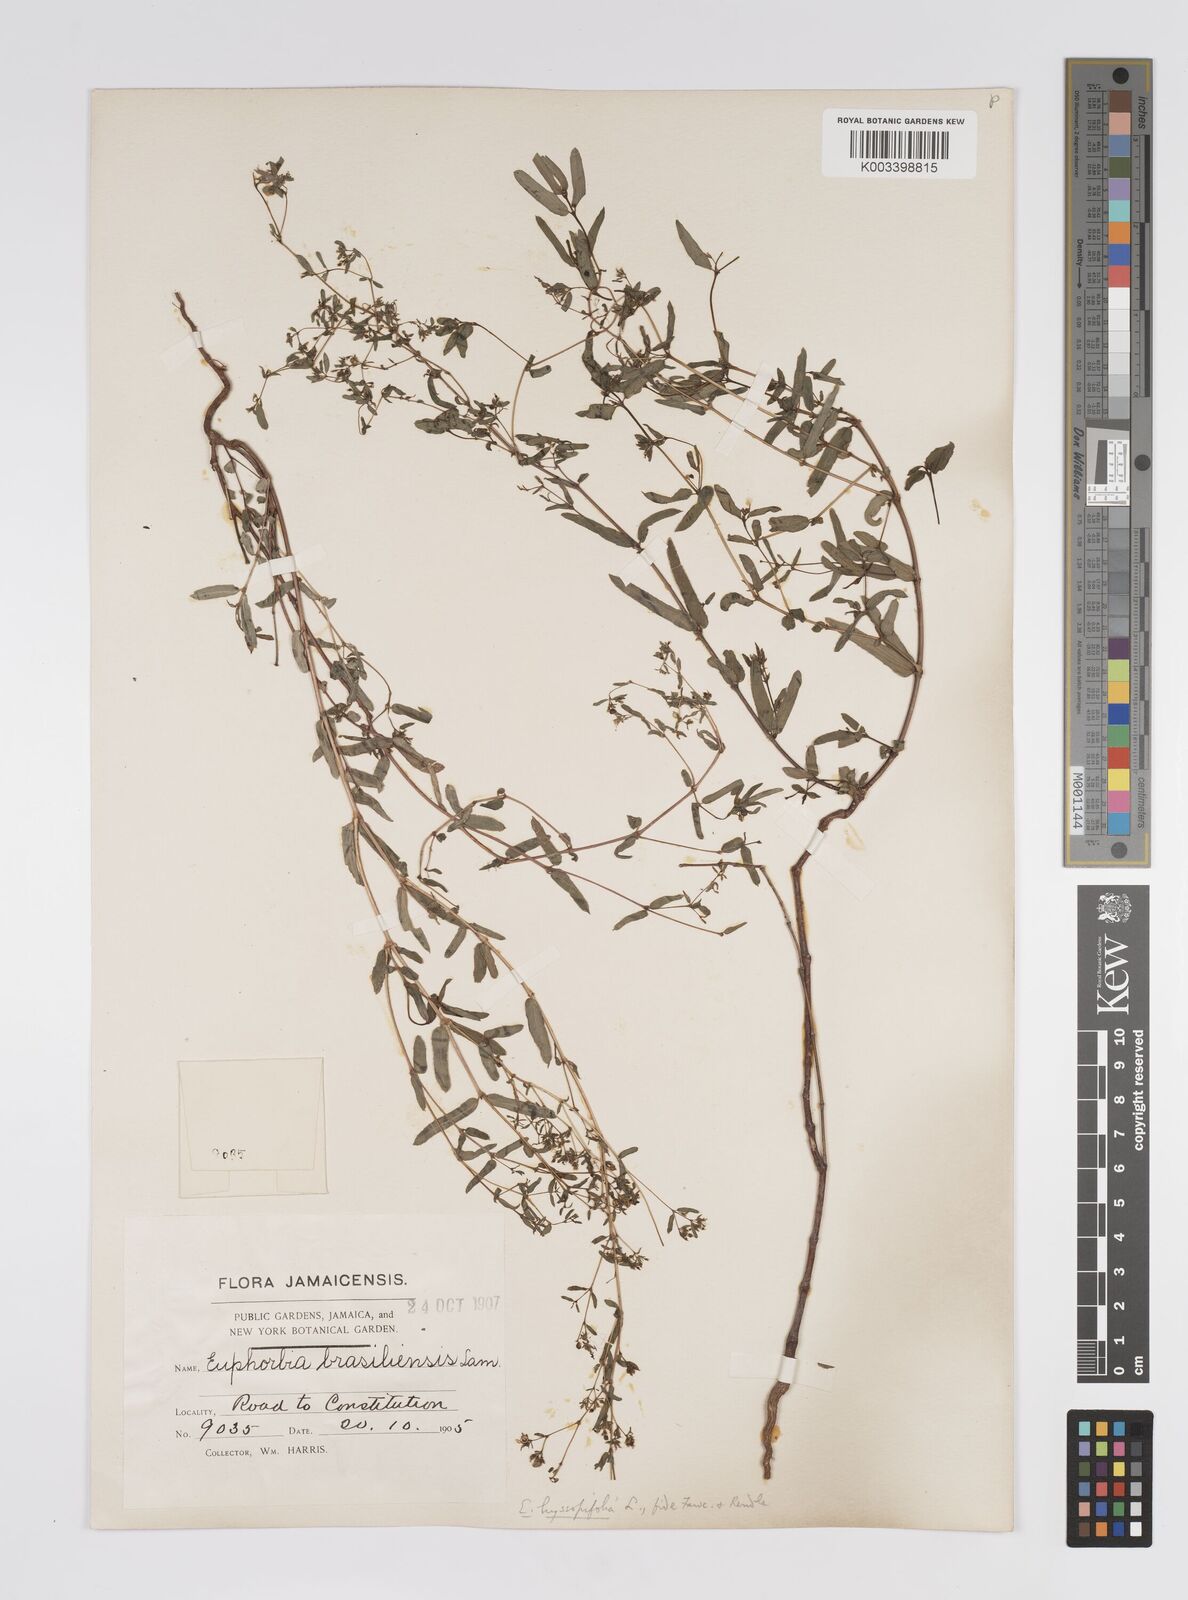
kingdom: Plantae
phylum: Tracheophyta
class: Magnoliopsida
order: Malpighiales
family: Euphorbiaceae
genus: Euphorbia
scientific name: Euphorbia hyssopifolia
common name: Hyssopleaf sandmat
